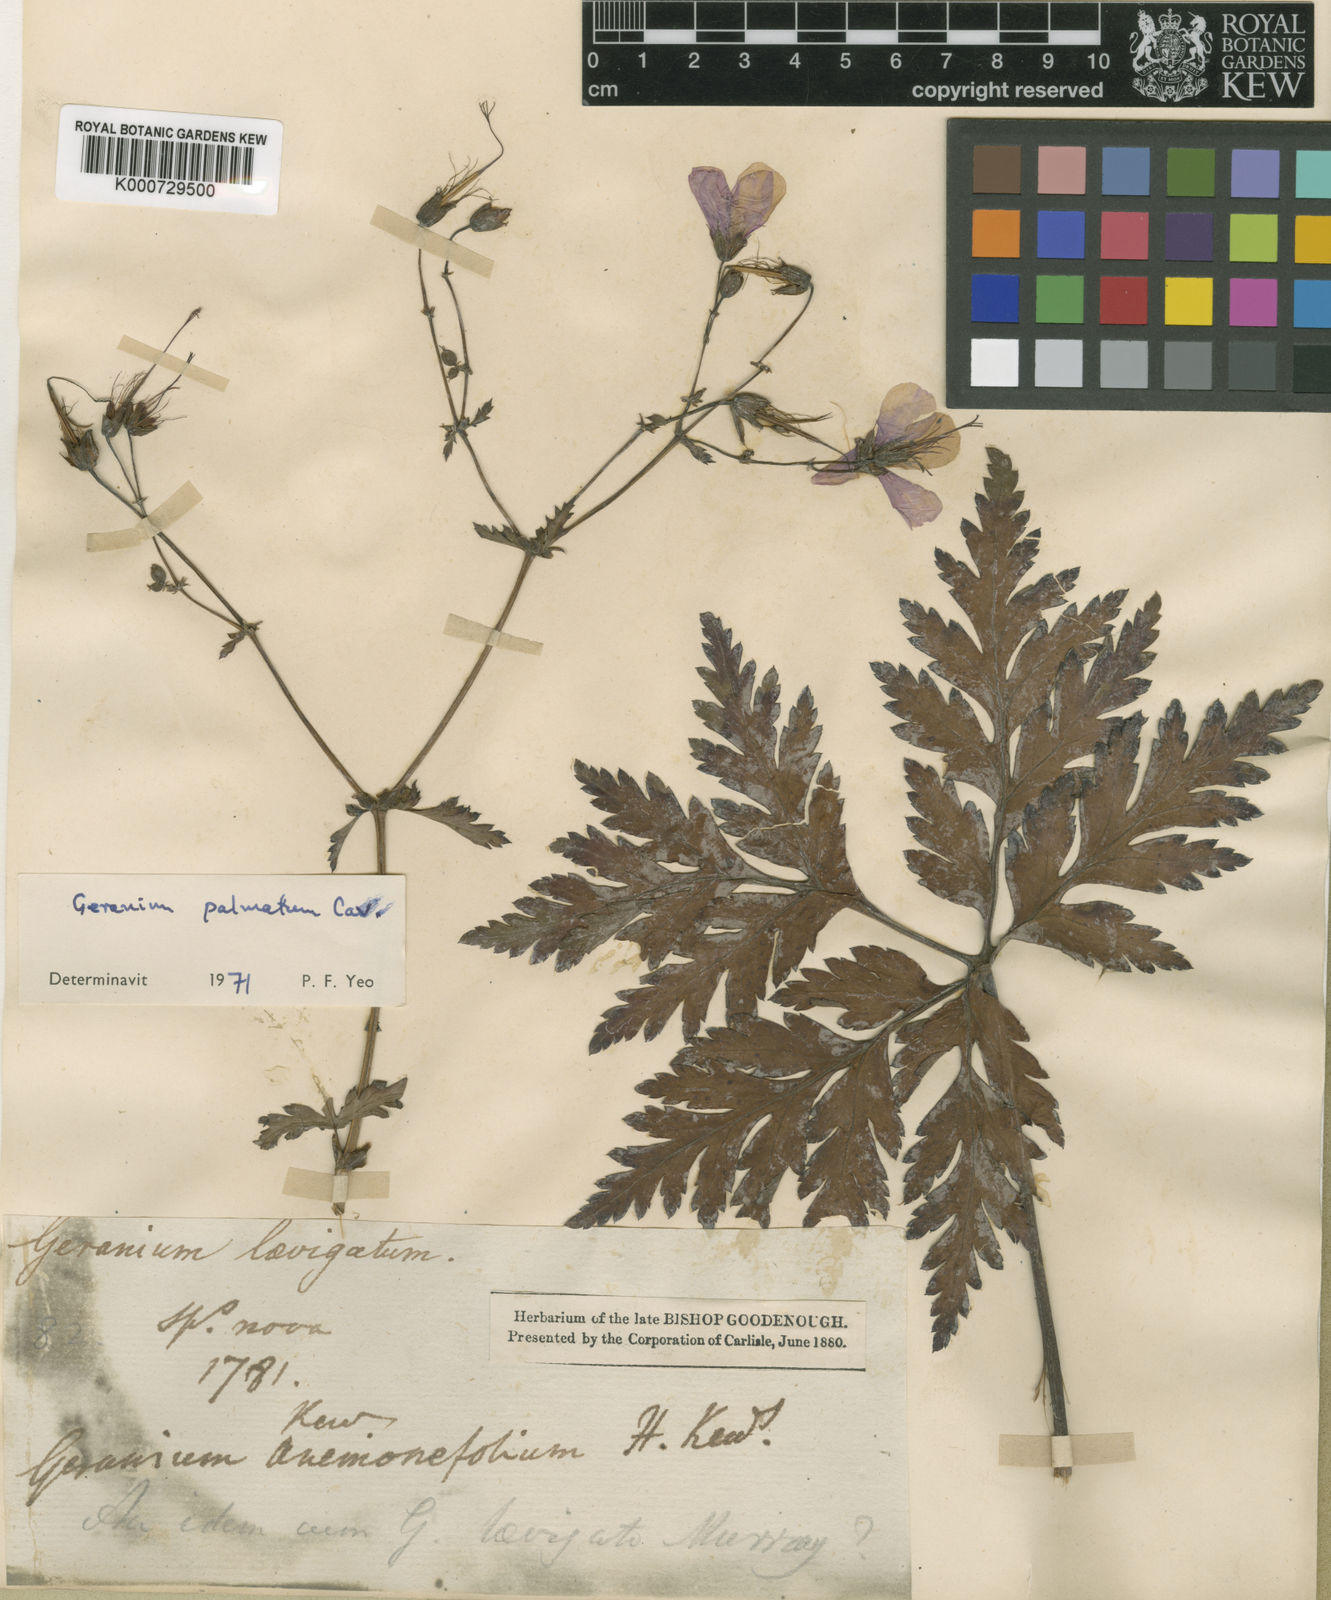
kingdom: Plantae
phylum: Tracheophyta
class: Magnoliopsida
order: Geraniales
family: Geraniaceae
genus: Geranium
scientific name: Geranium palmatum
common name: Canary island geranium
